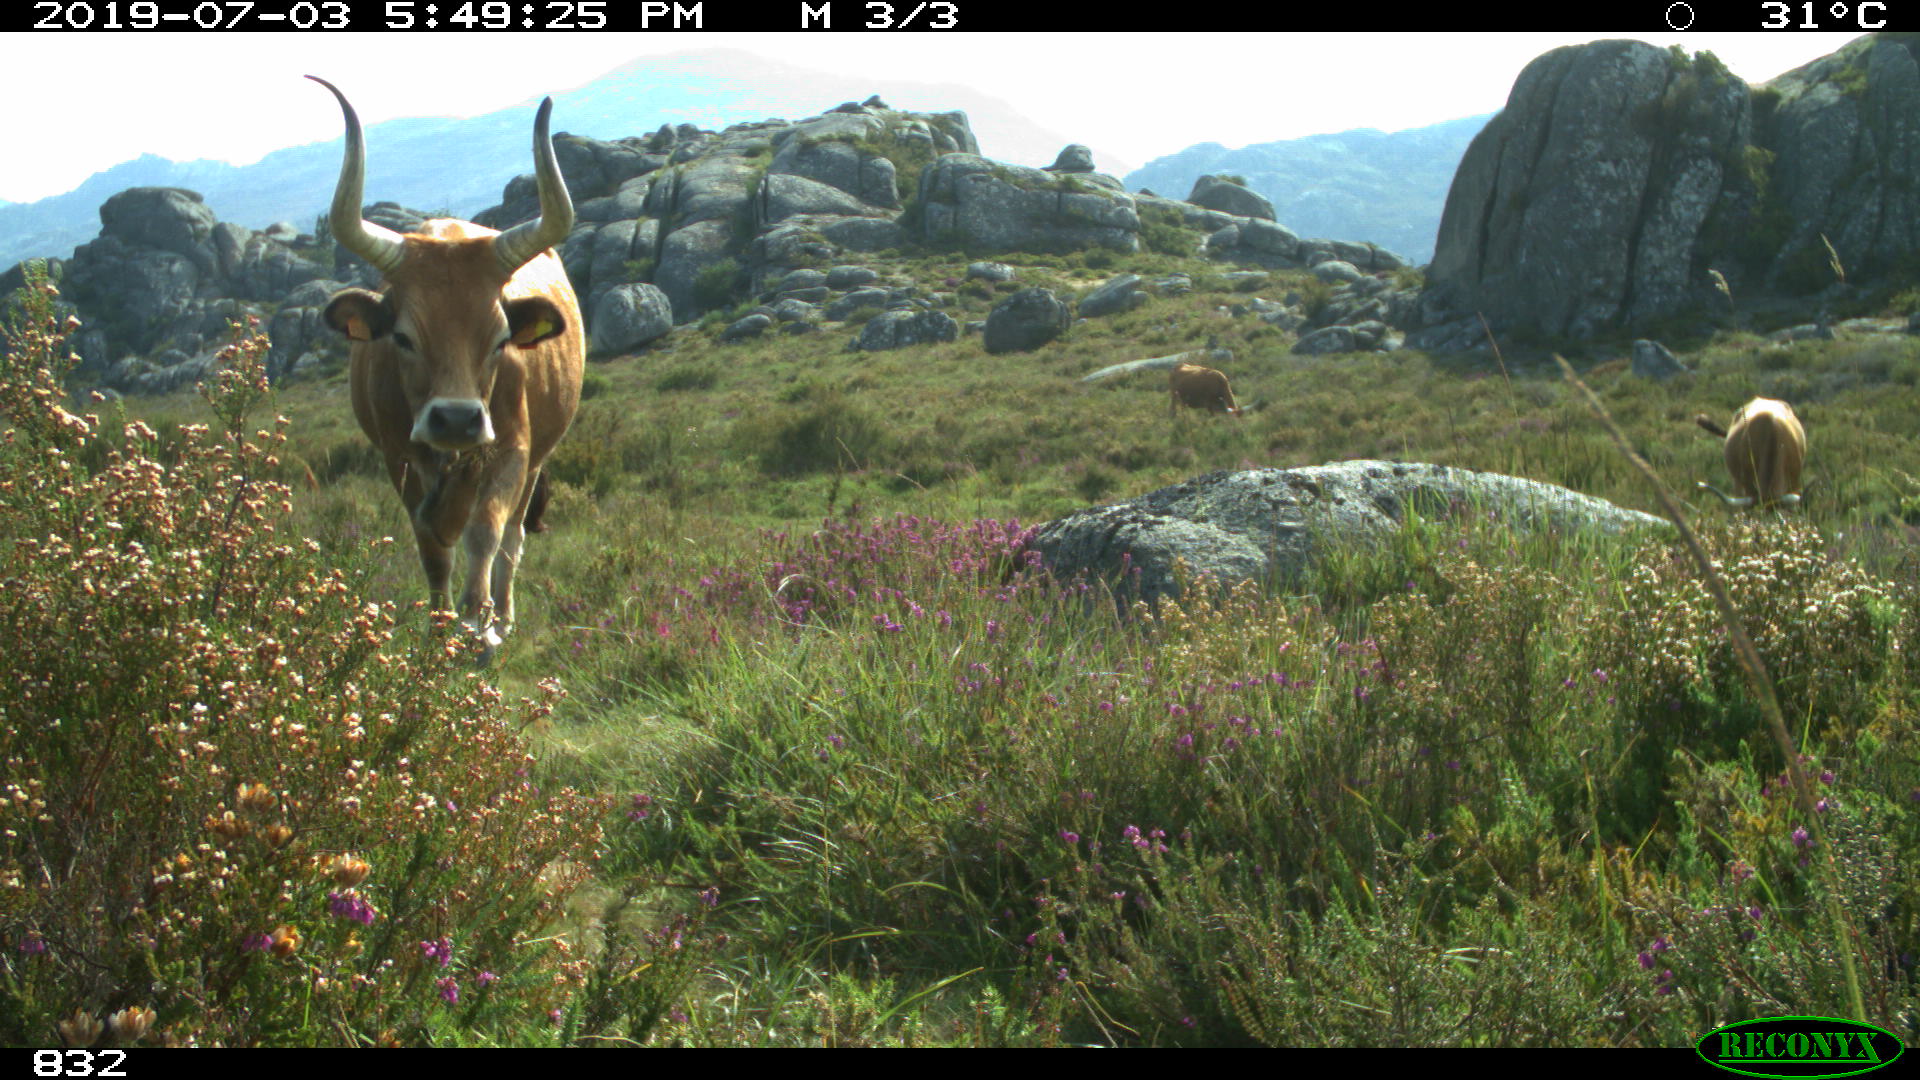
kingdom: Animalia
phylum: Chordata
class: Mammalia
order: Artiodactyla
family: Bovidae
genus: Bos
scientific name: Bos taurus
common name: Domesticated cattle
